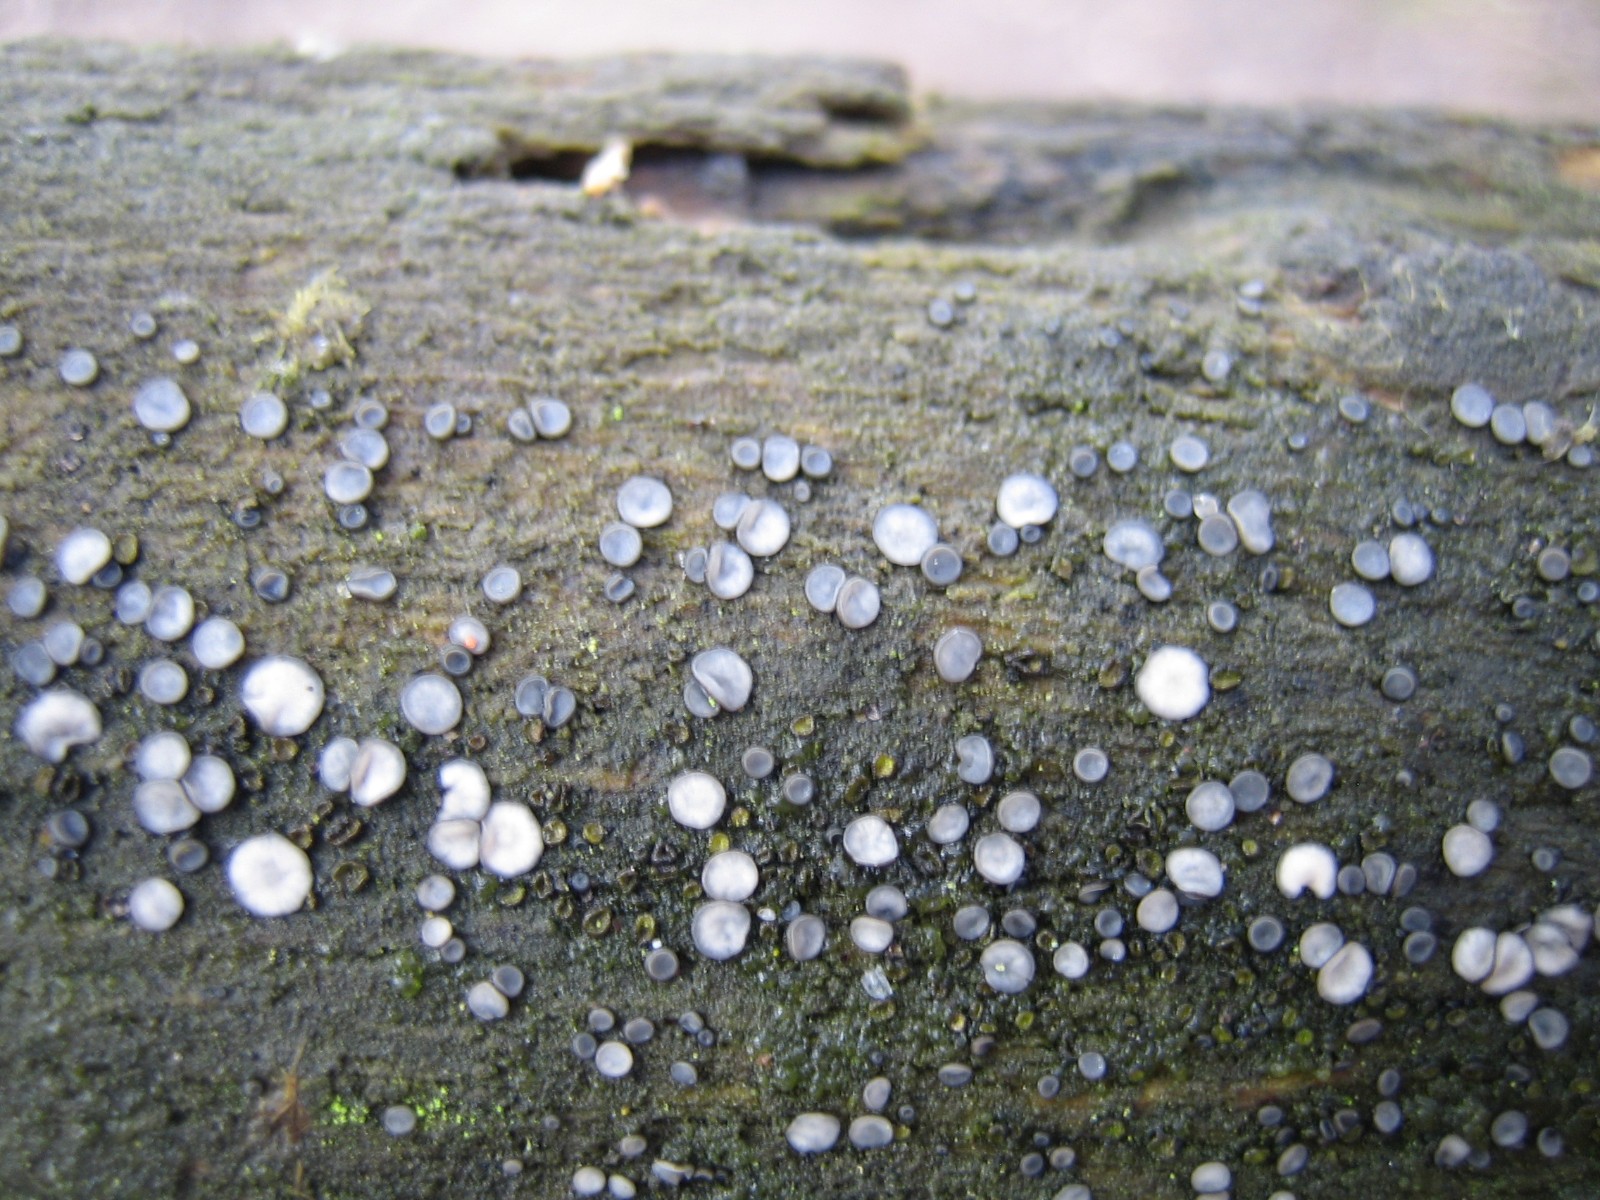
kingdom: Fungi
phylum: Ascomycota
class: Leotiomycetes
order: Helotiales
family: Mollisiaceae
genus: Mollisia
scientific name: Mollisia
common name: gråskive
